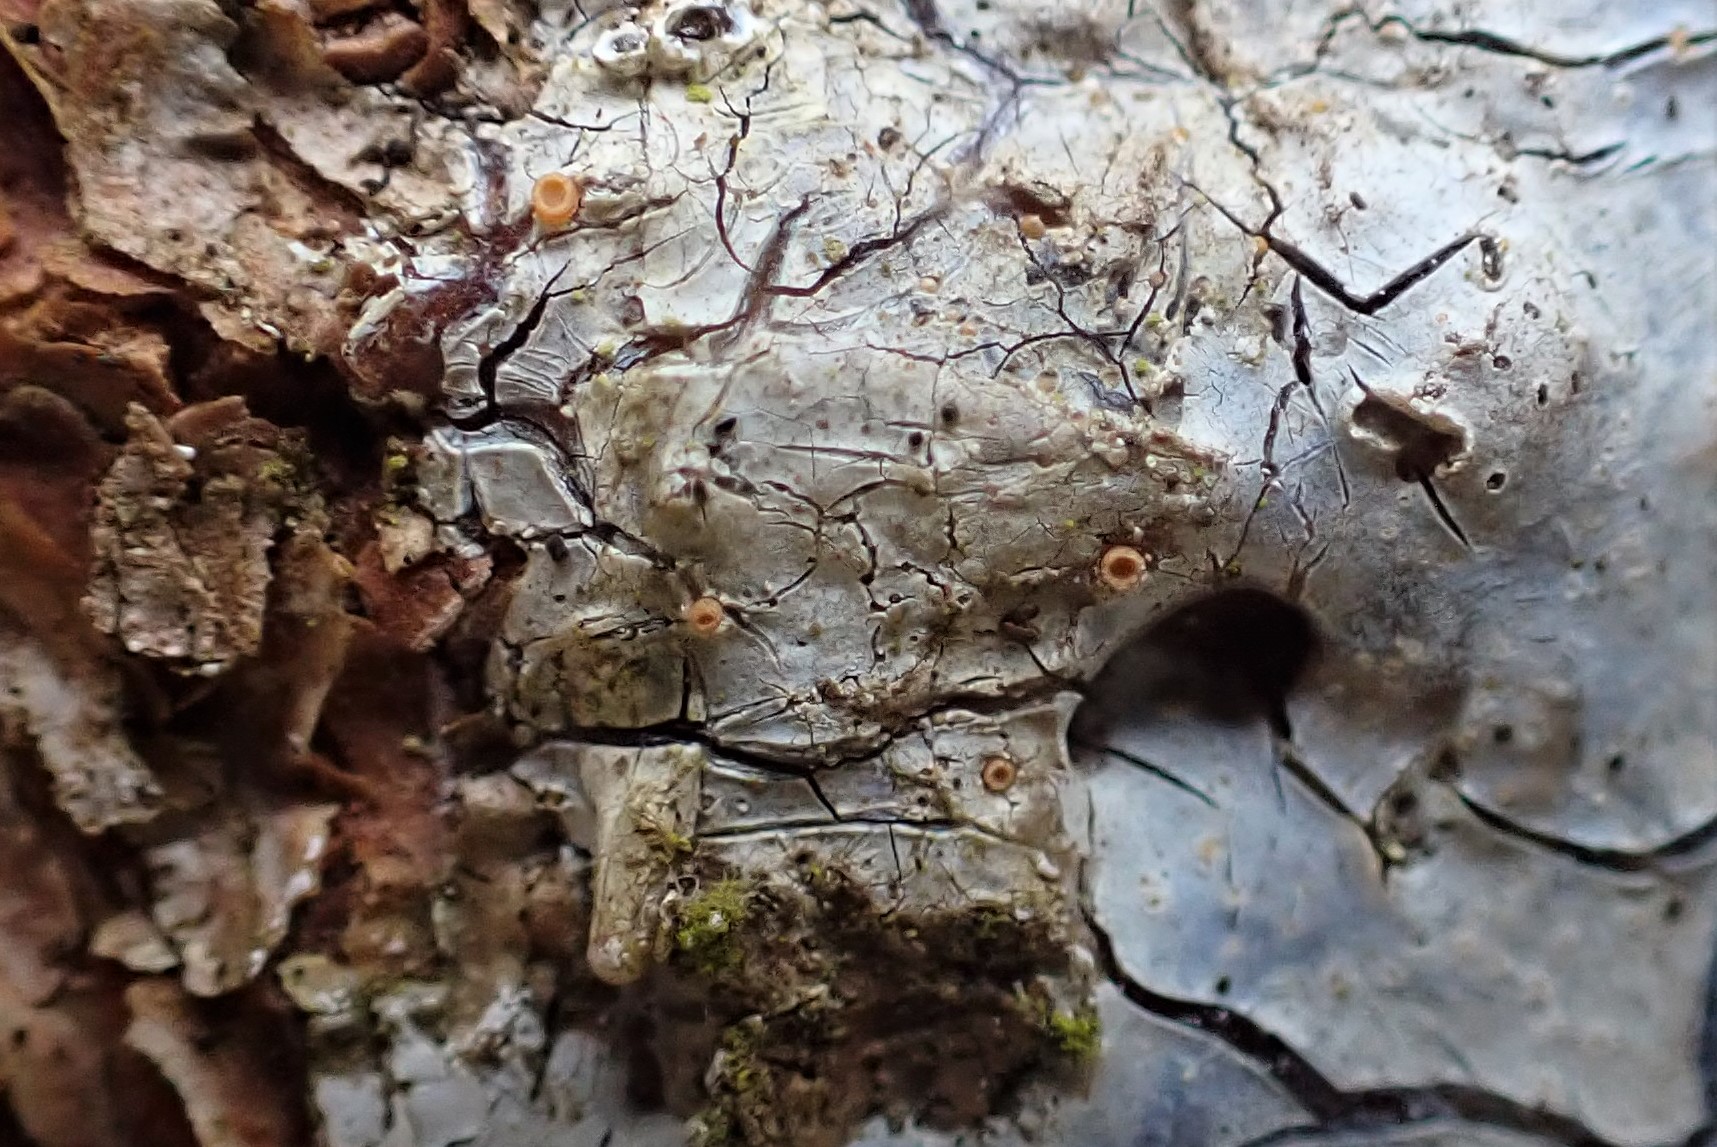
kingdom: Fungi
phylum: Ascomycota
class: Sareomycetes
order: Sareales
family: Sareaceae
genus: Sarea
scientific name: Sarea resinae
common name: orangegul harpiksskive
